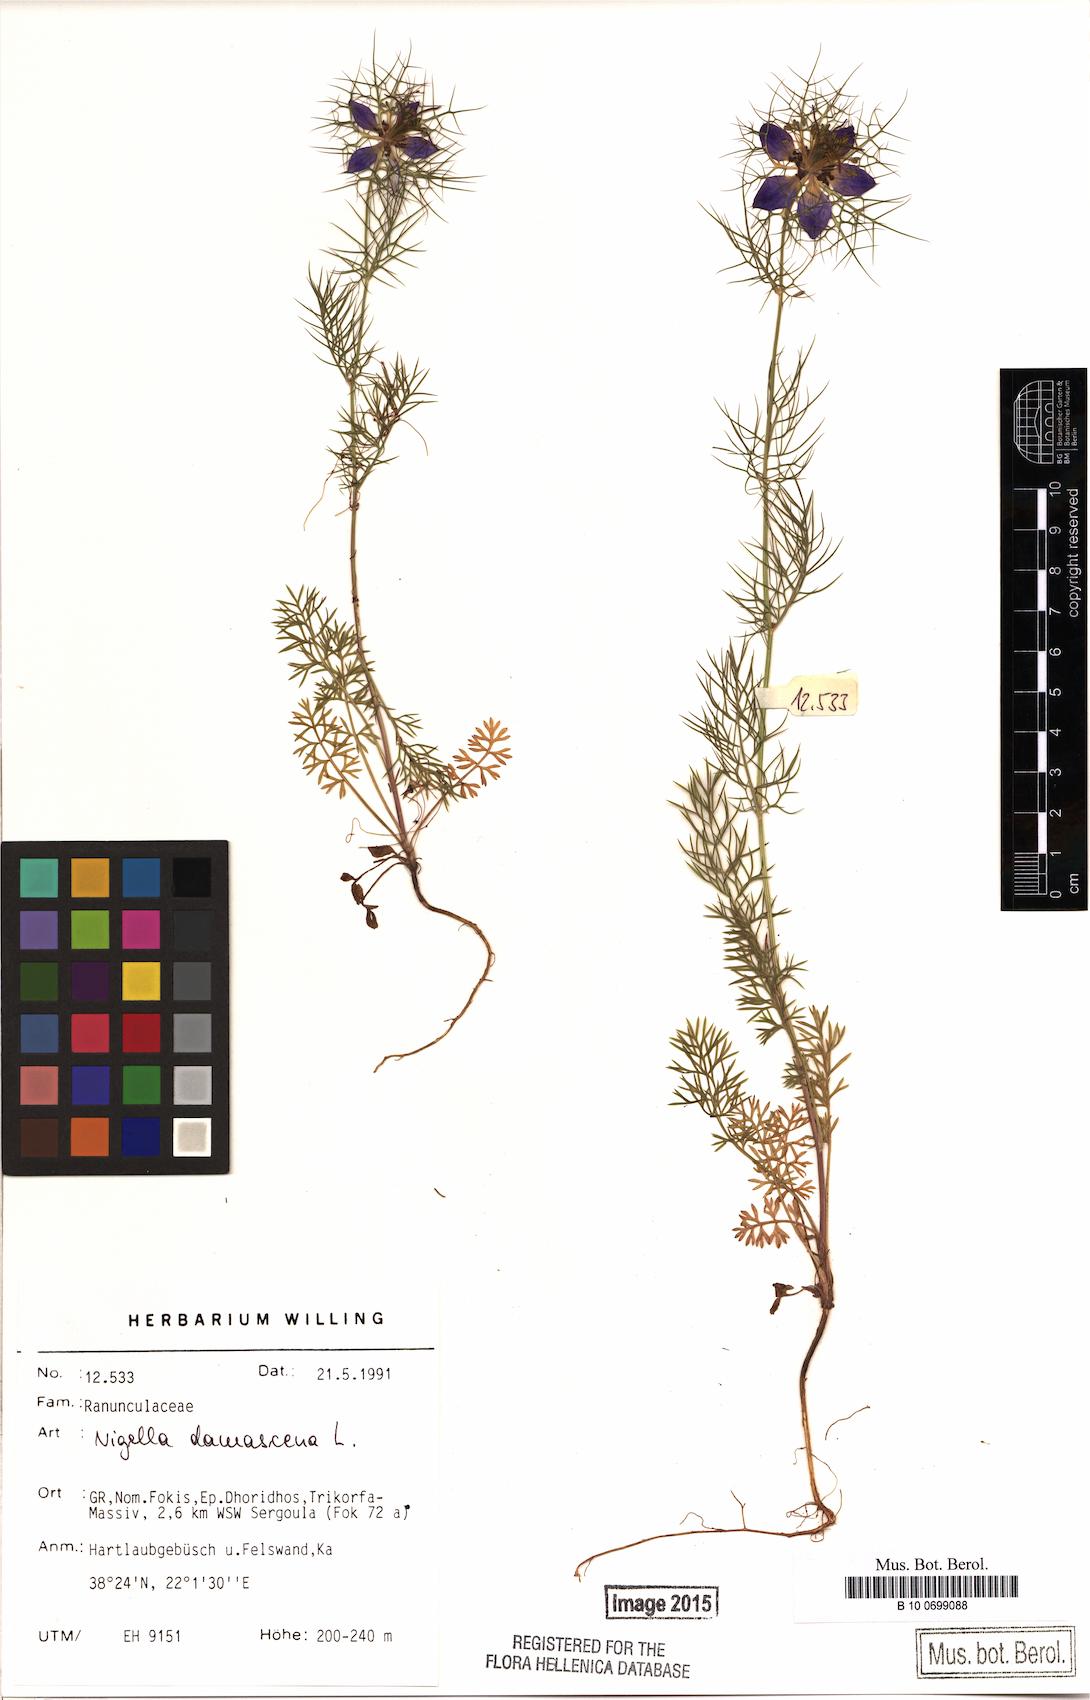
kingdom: Plantae
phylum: Tracheophyta
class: Magnoliopsida
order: Ranunculales
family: Ranunculaceae
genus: Nigella
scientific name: Nigella damascena
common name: Love-in-a-mist
